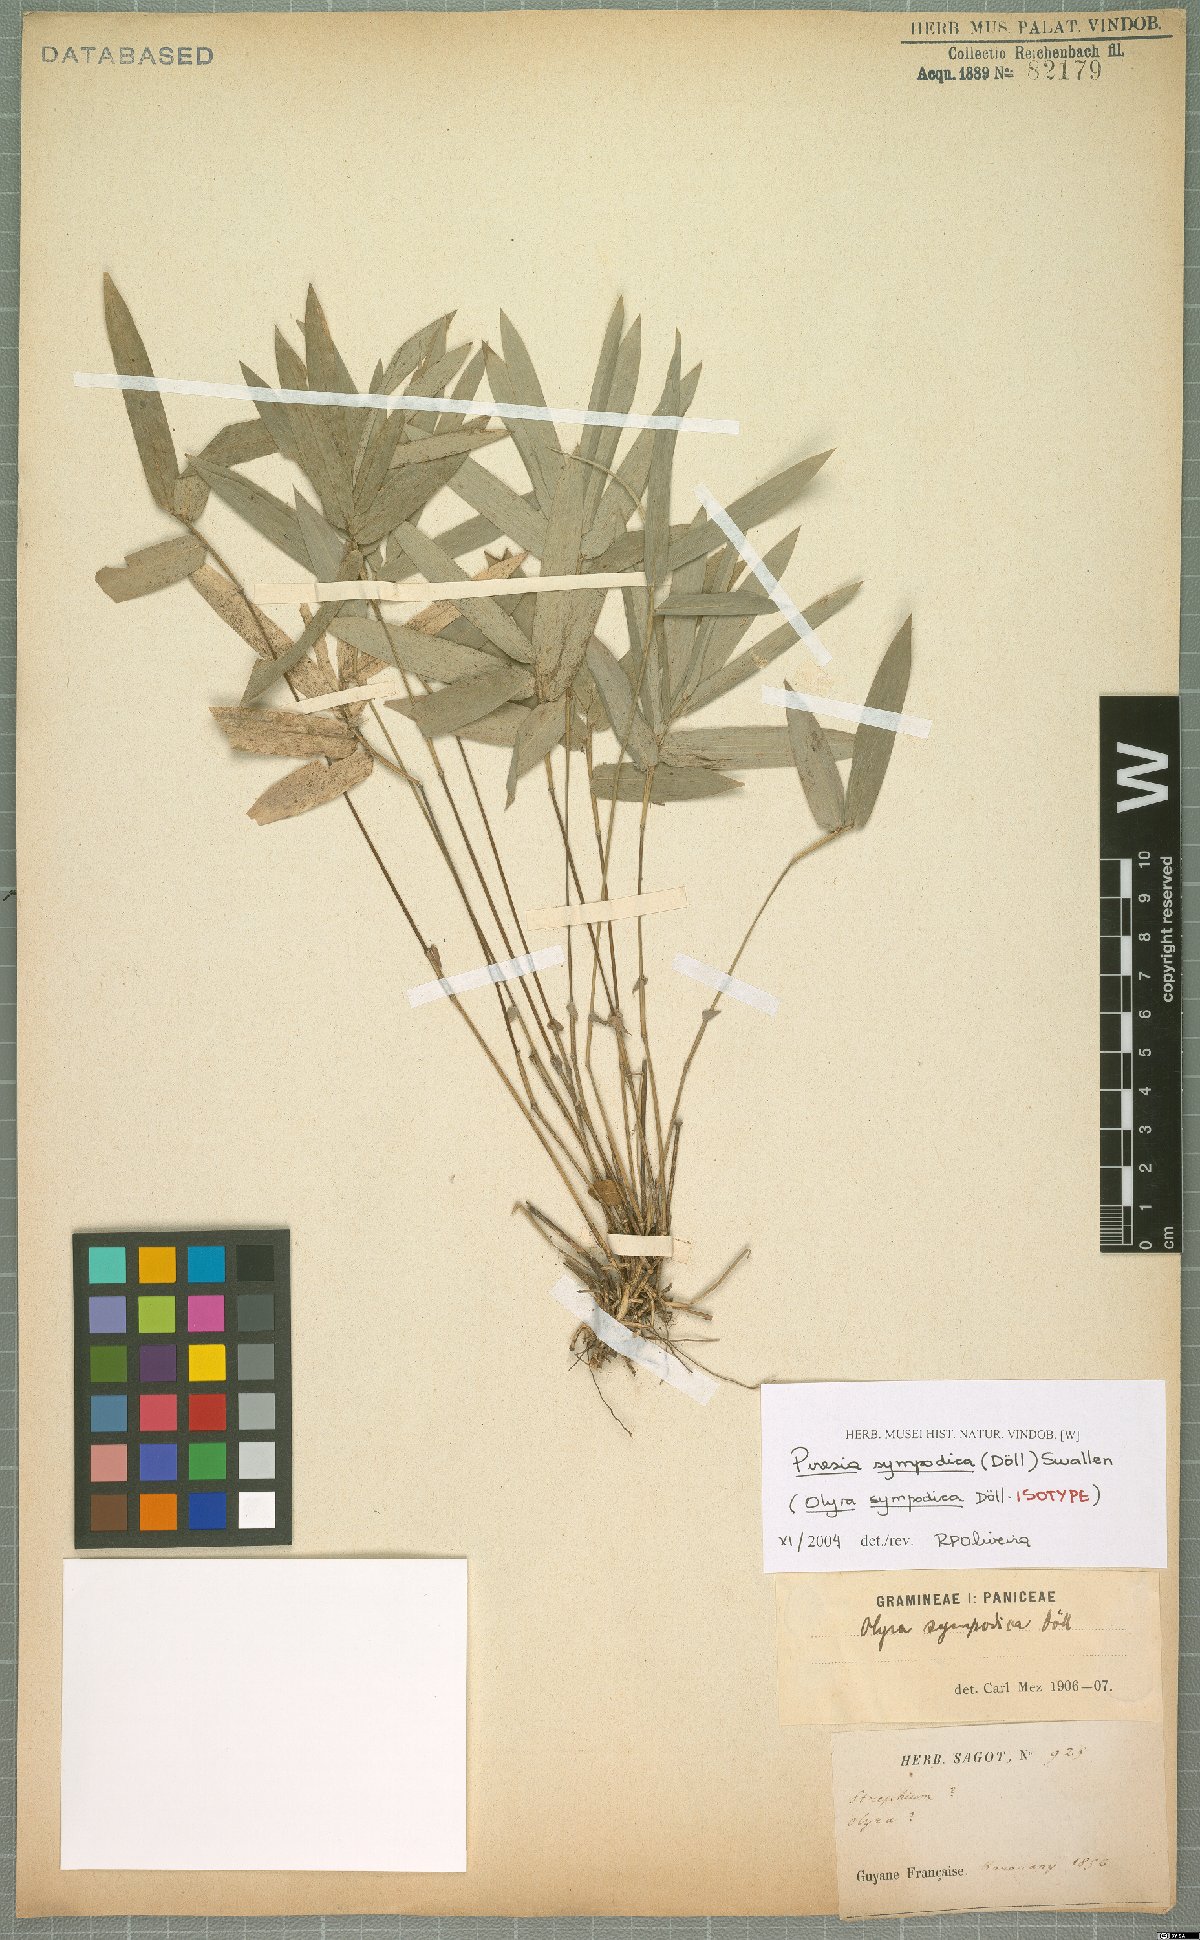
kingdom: Plantae
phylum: Tracheophyta
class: Liliopsida
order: Poales
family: Poaceae
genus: Piresia
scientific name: Piresia sympodica
